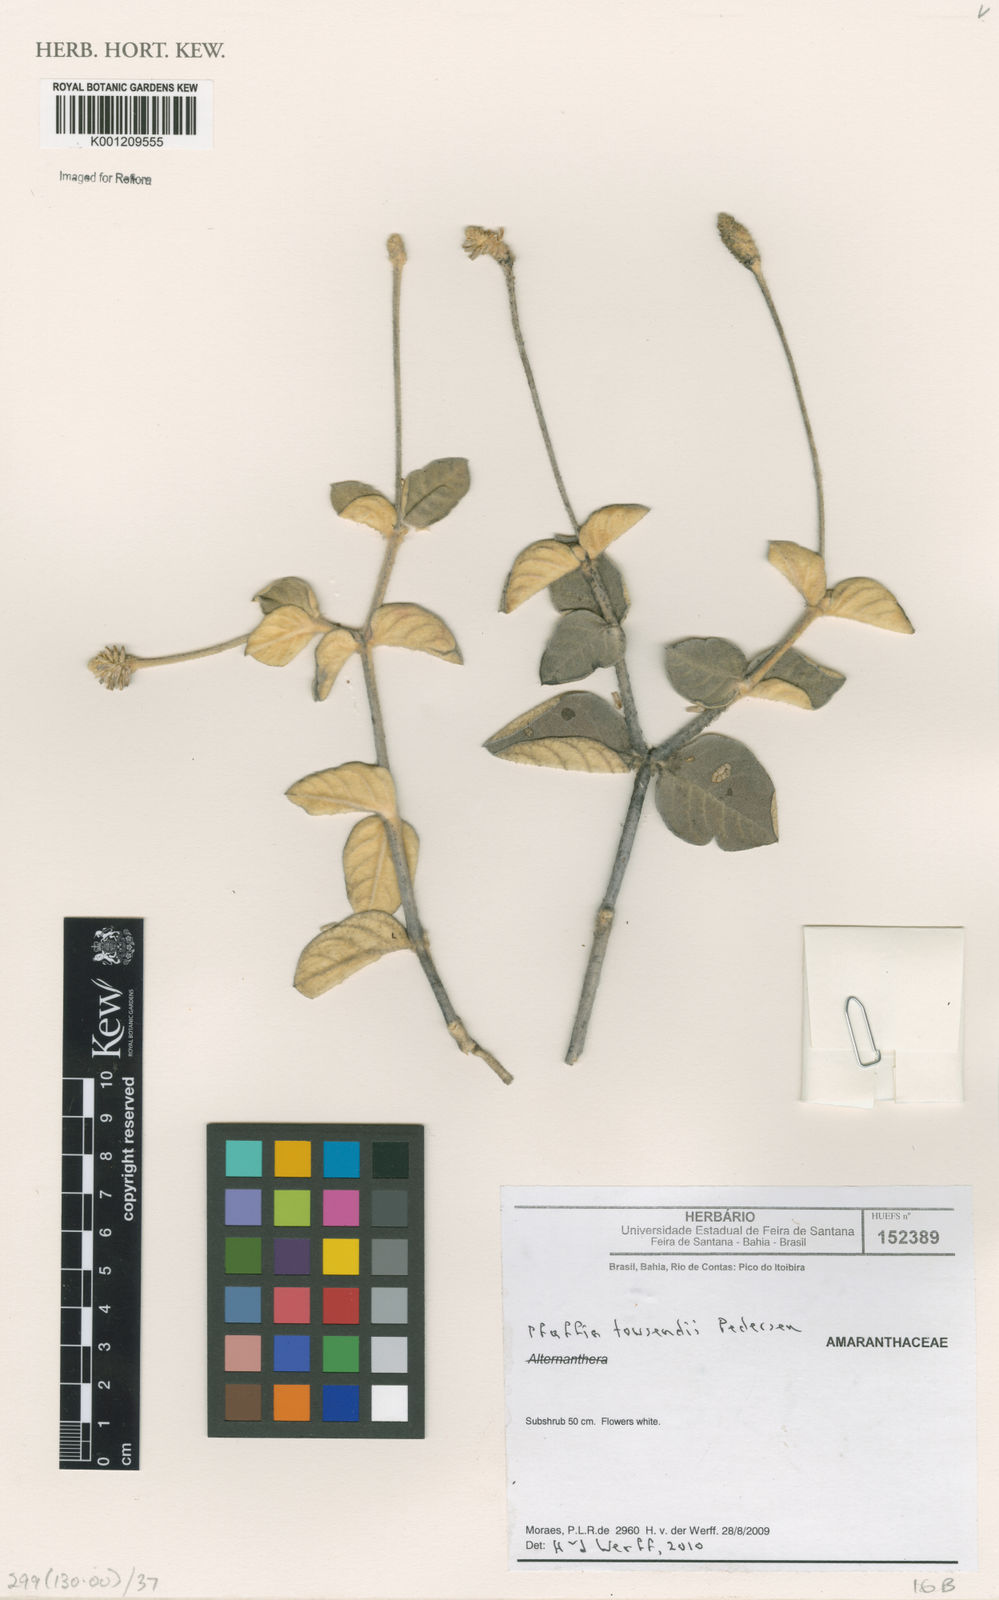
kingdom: Plantae
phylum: Tracheophyta
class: Magnoliopsida
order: Caryophyllales
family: Amaranthaceae
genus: Pfaffia
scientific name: Pfaffia townsendii
